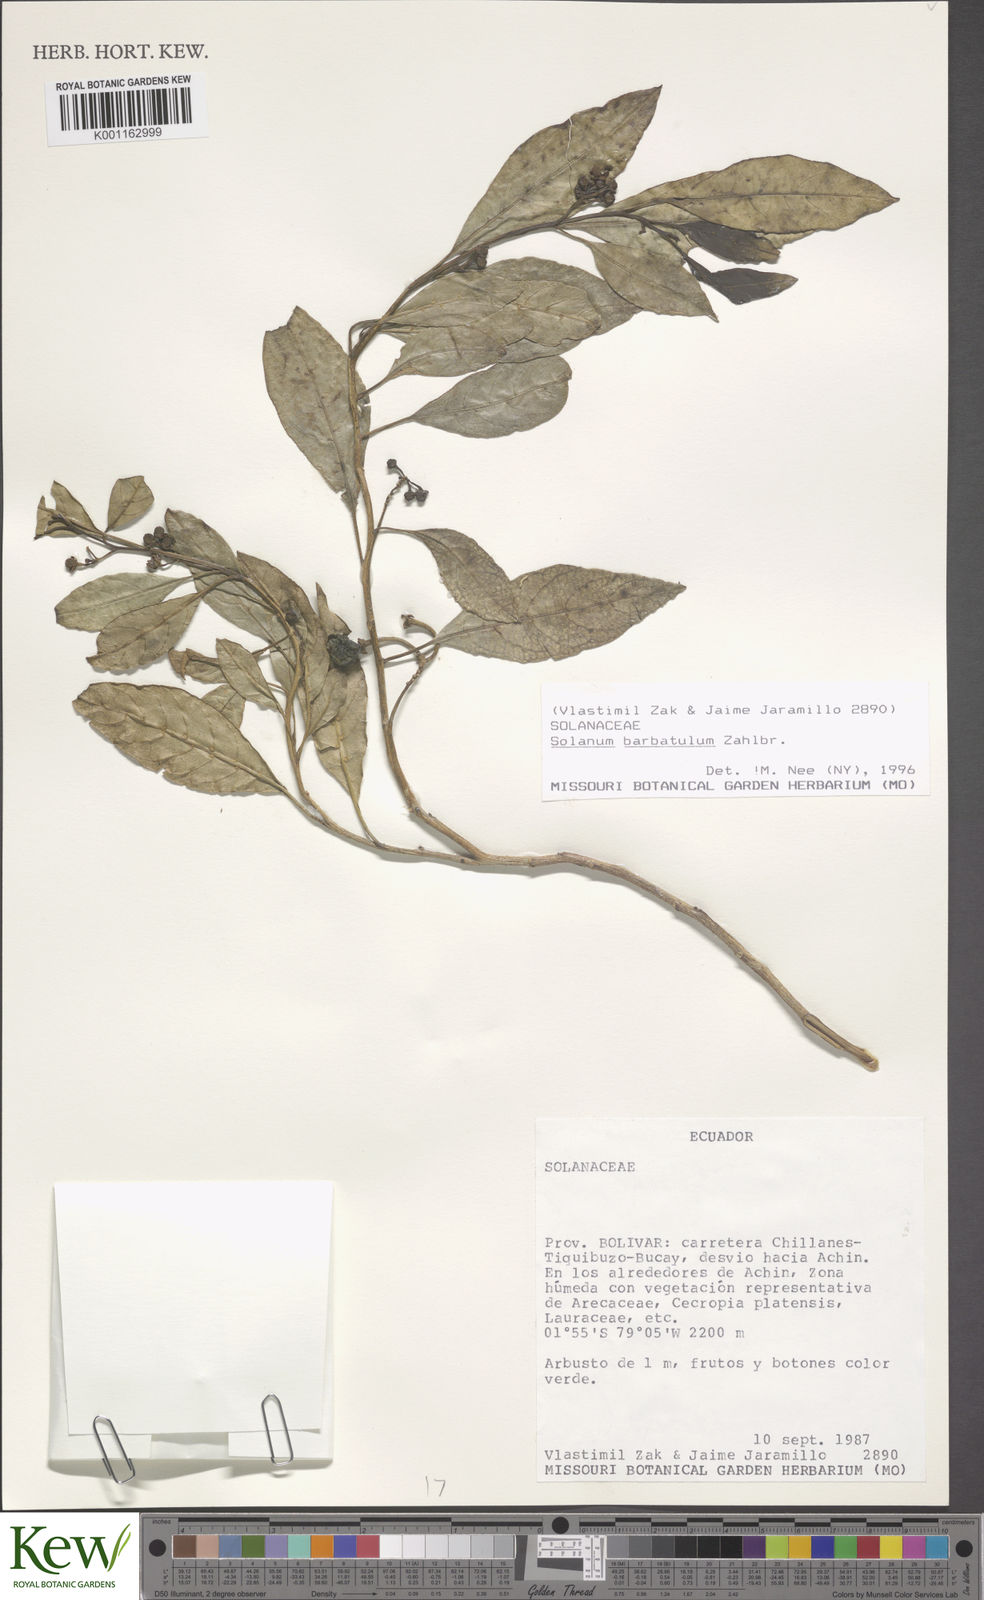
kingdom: Plantae
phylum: Tracheophyta
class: Magnoliopsida
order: Solanales
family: Solanaceae
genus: Solanum
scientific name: Solanum barbulatum
